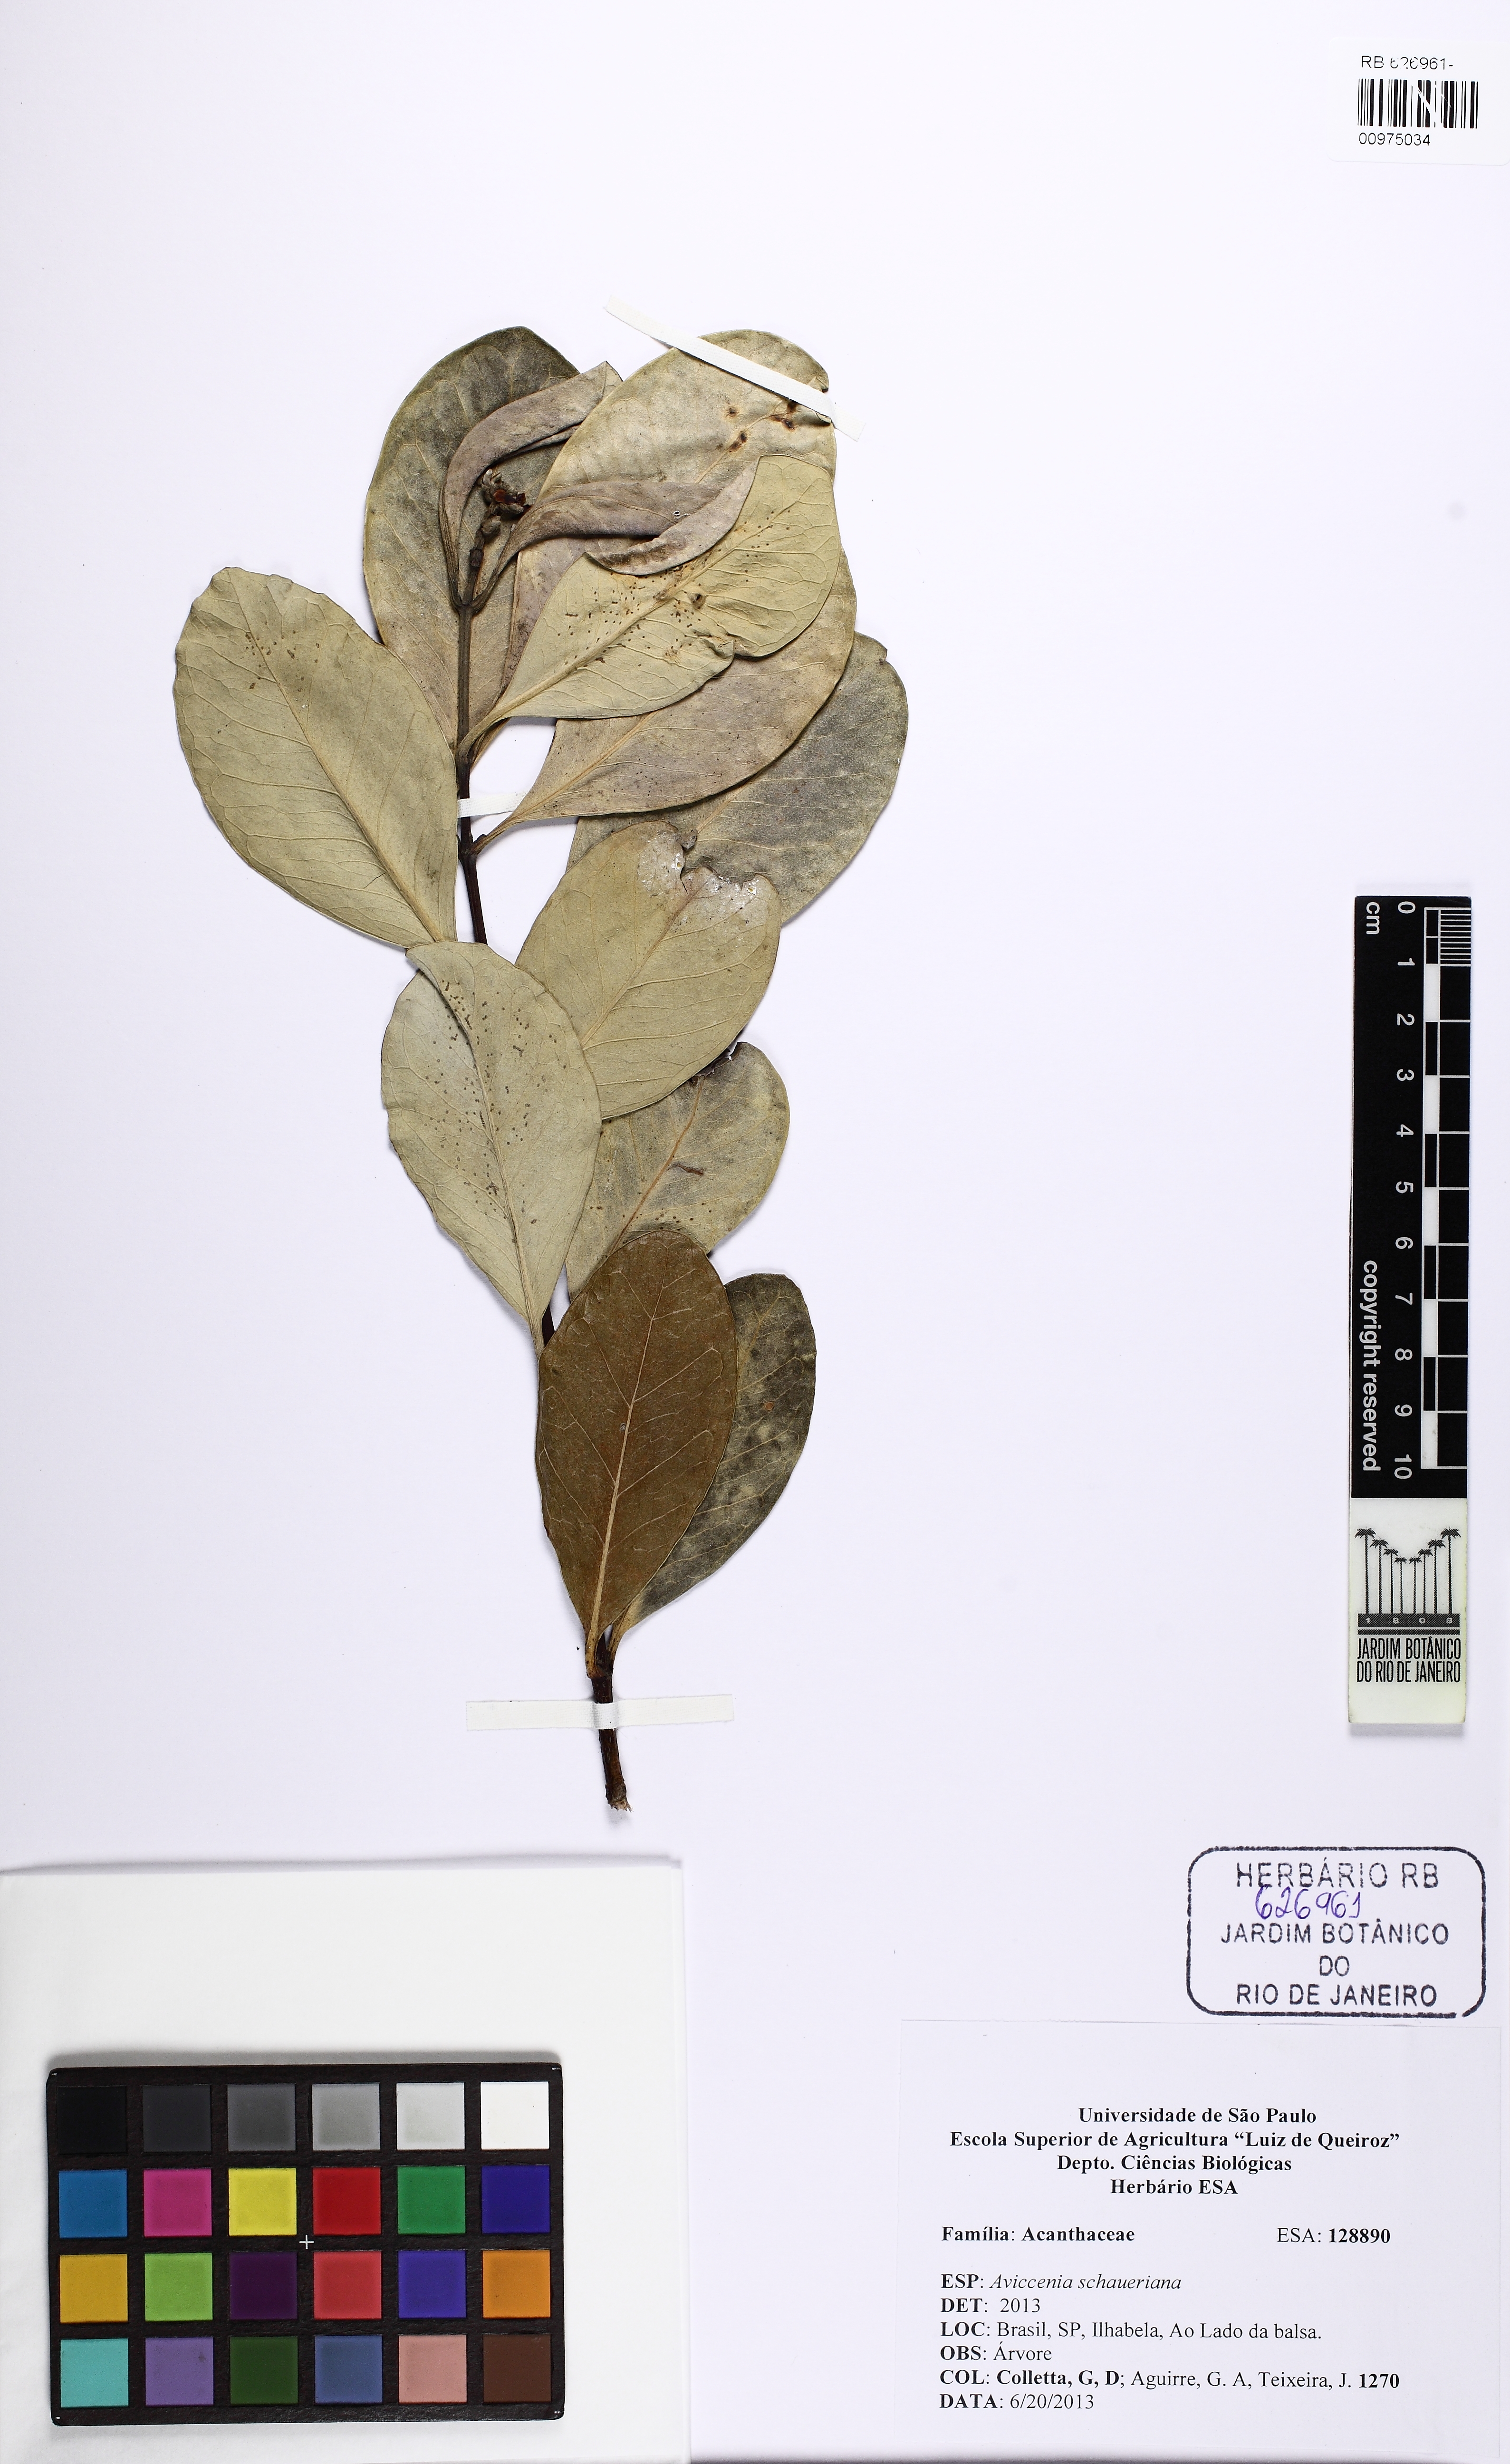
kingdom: Plantae
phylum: Tracheophyta
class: Magnoliopsida
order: Lamiales
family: Acanthaceae
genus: Avicennia
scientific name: Avicennia schaueriana
